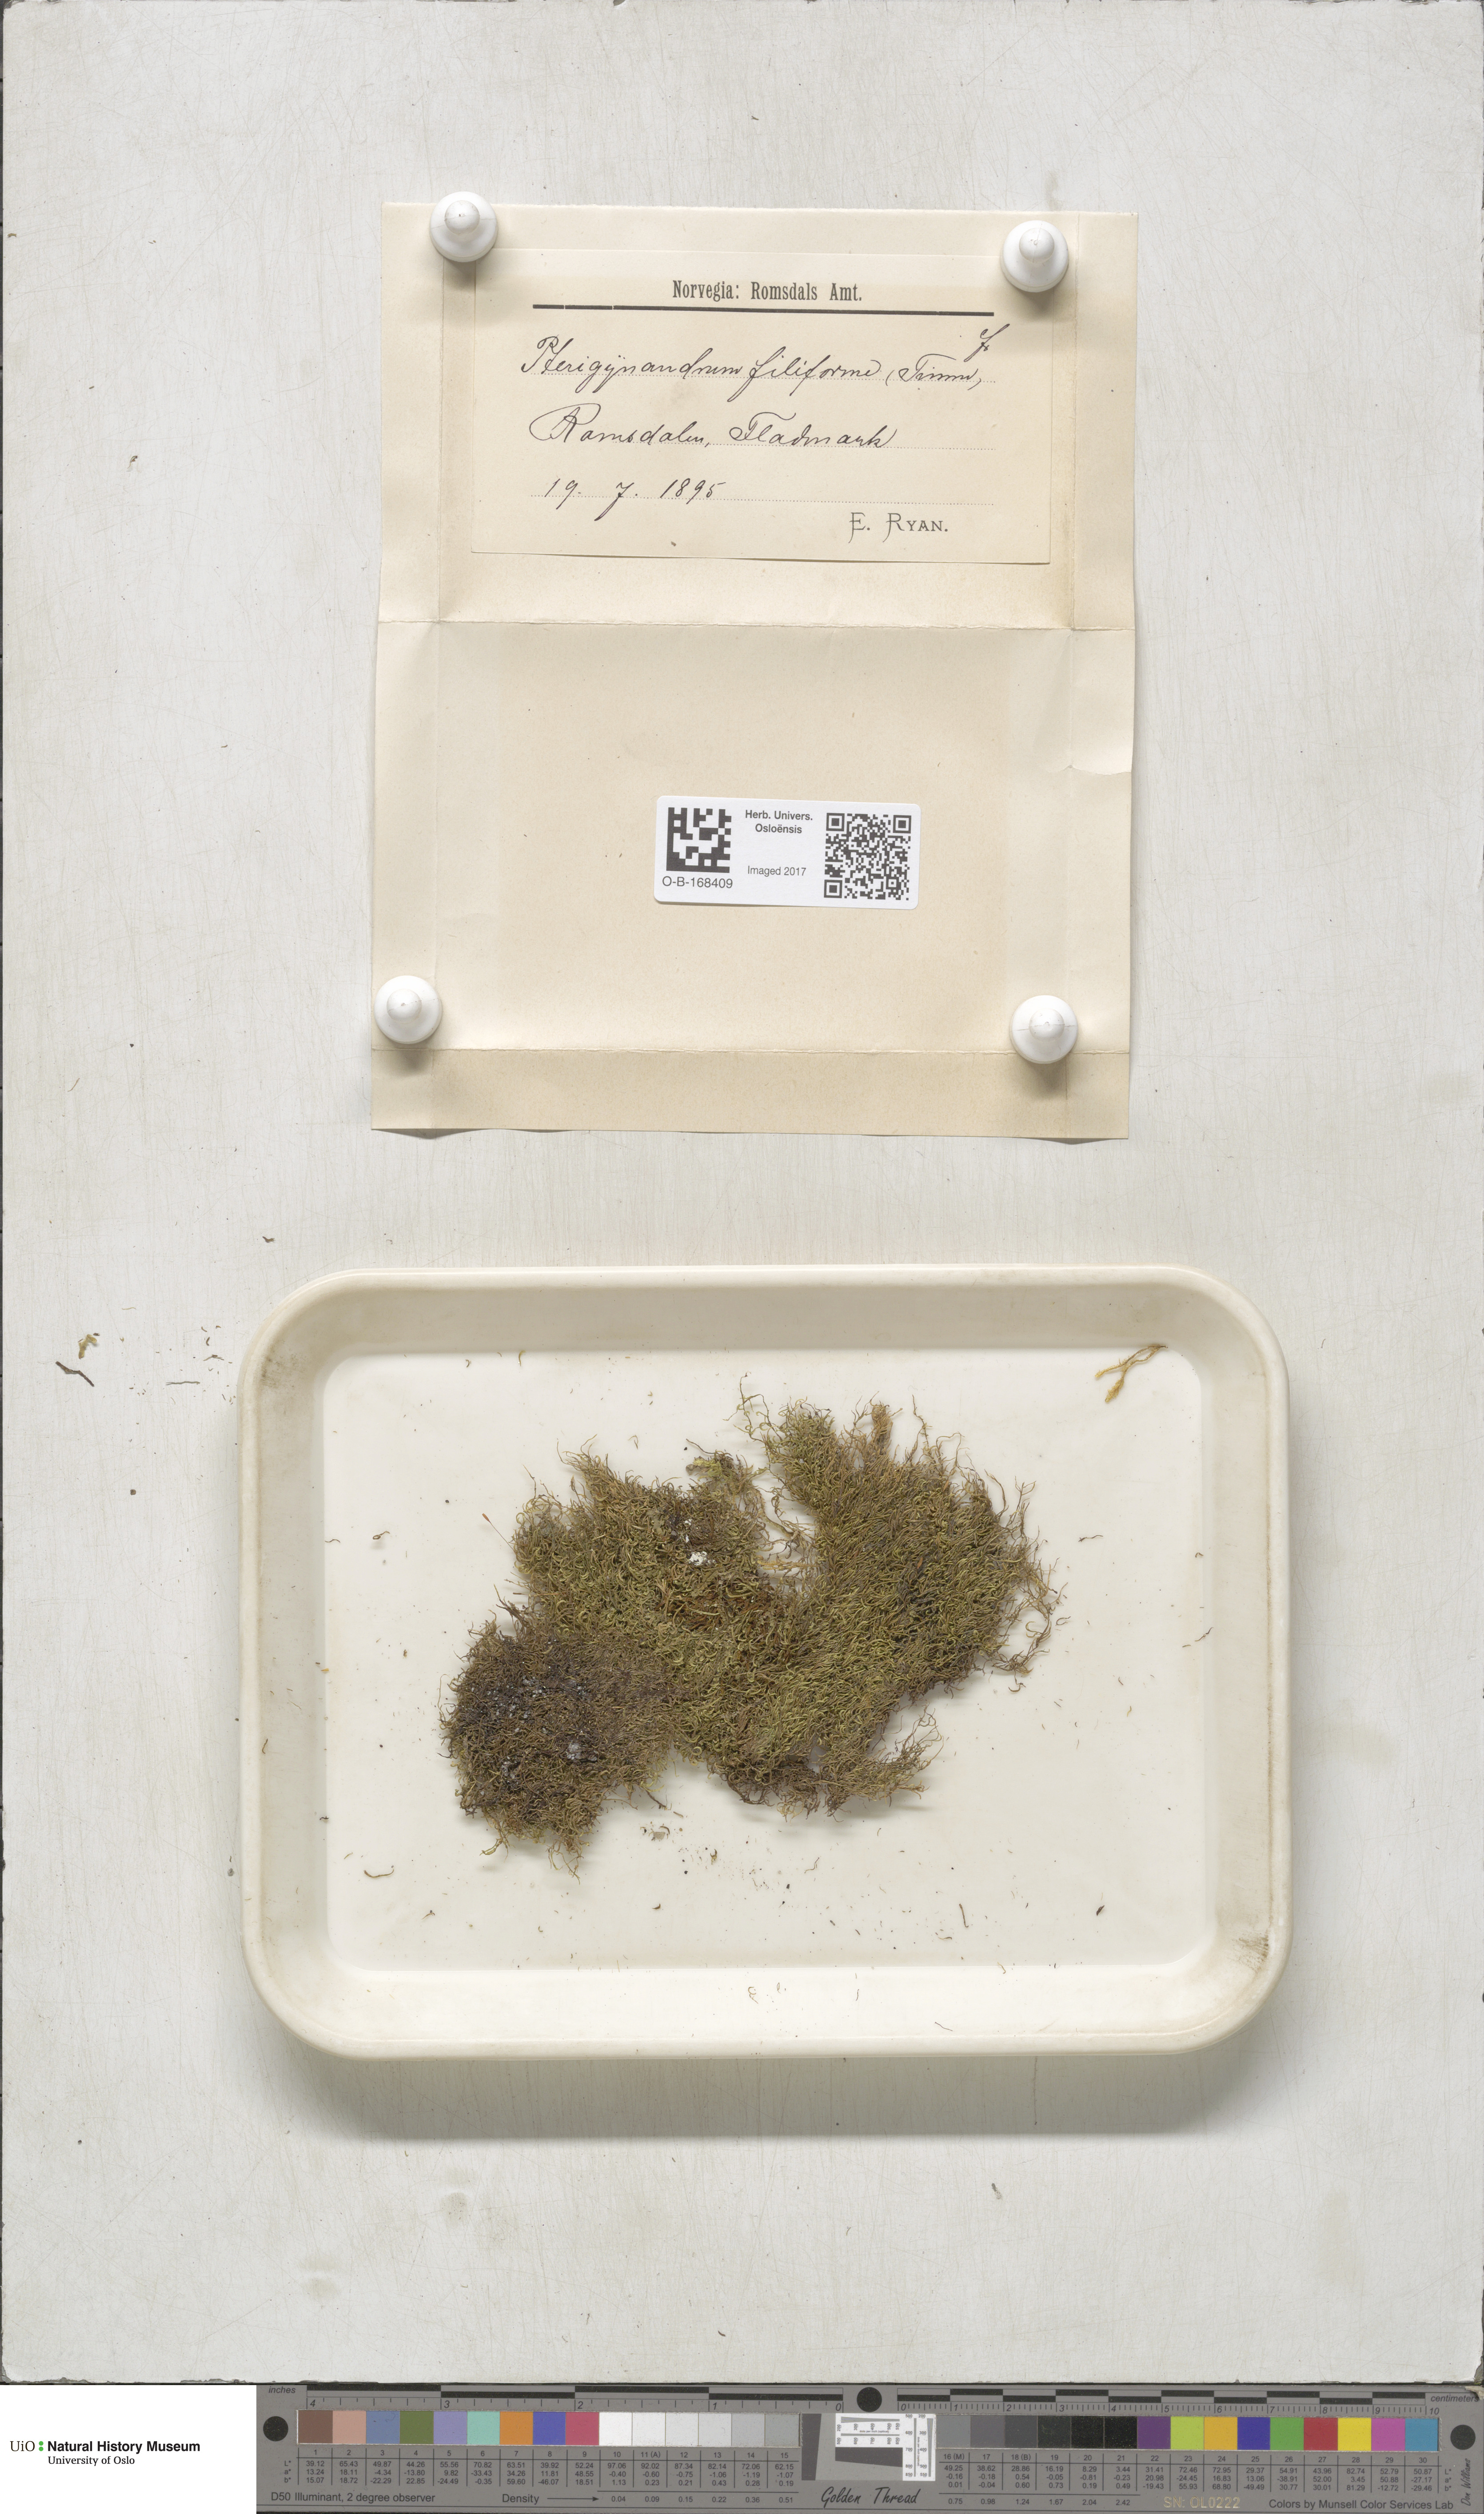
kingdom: Plantae
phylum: Bryophyta
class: Bryopsida
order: Hypnales
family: Pterigynandraceae
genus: Pterigynandrum
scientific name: Pterigynandrum filiforme
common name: Capillary wing moss
